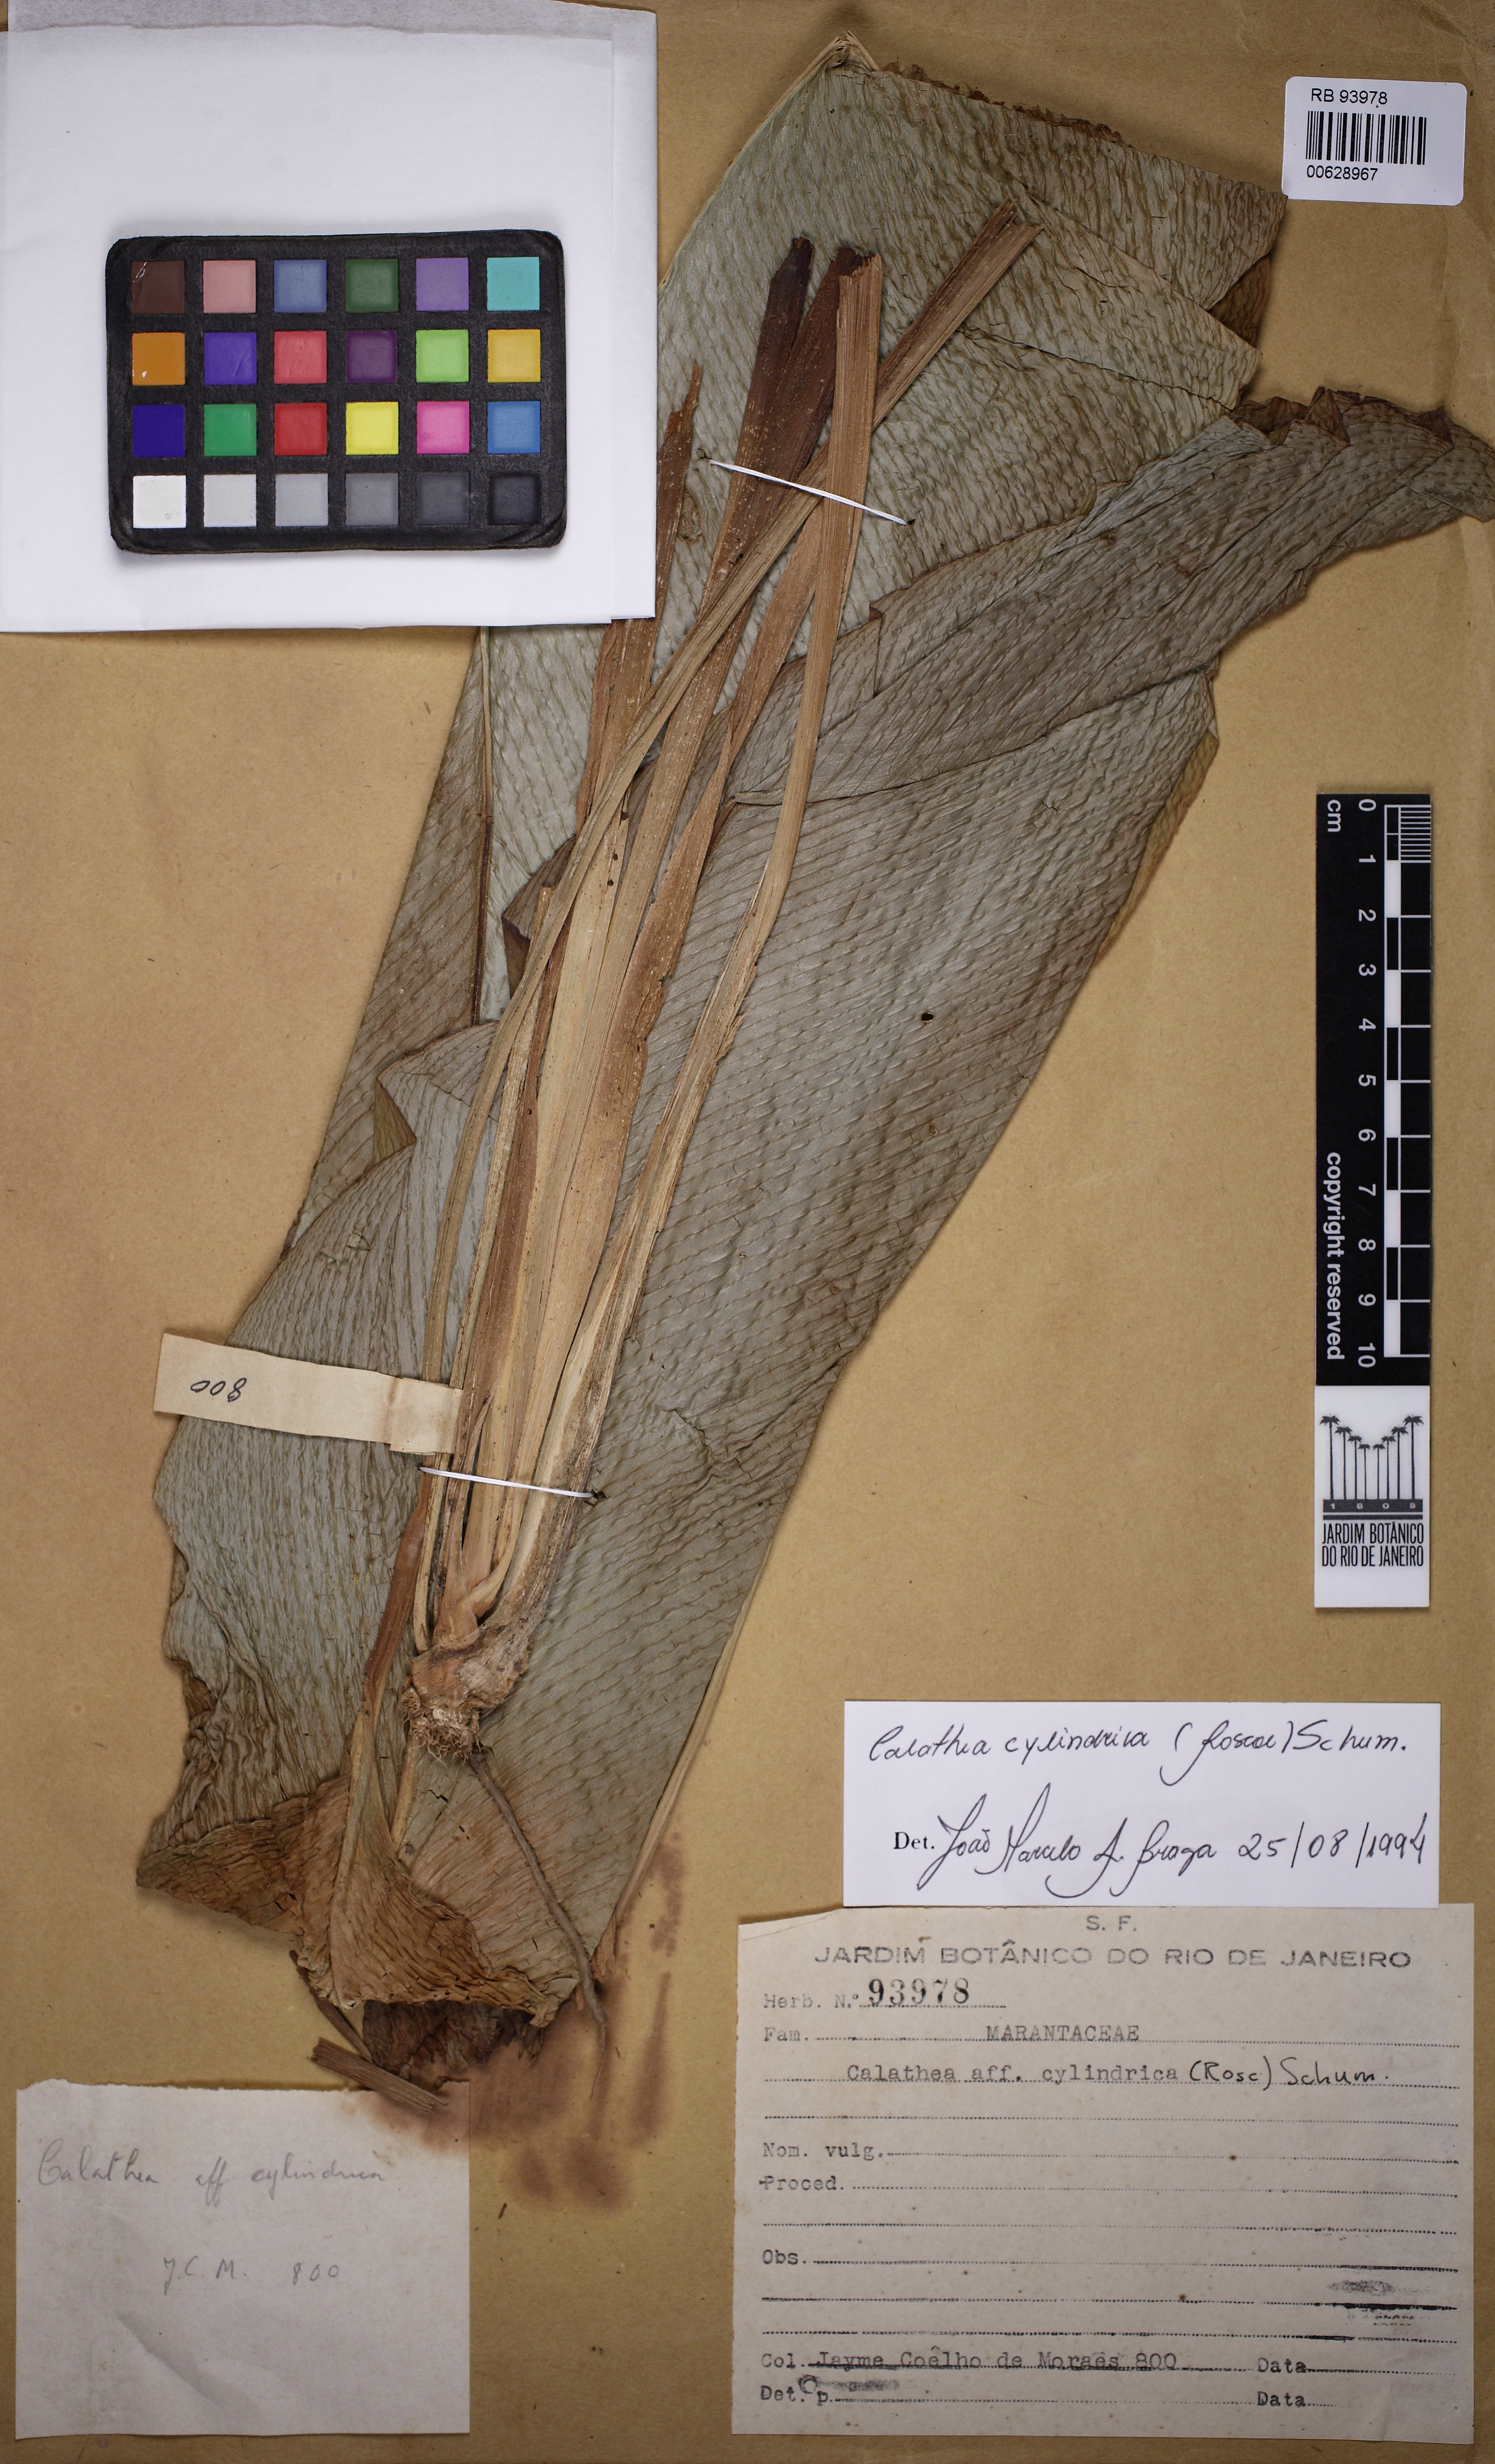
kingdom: Plantae
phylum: Tracheophyta
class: Liliopsida
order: Zingiberales
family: Marantaceae
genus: Goeppertia
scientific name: Goeppertia cylindrica
